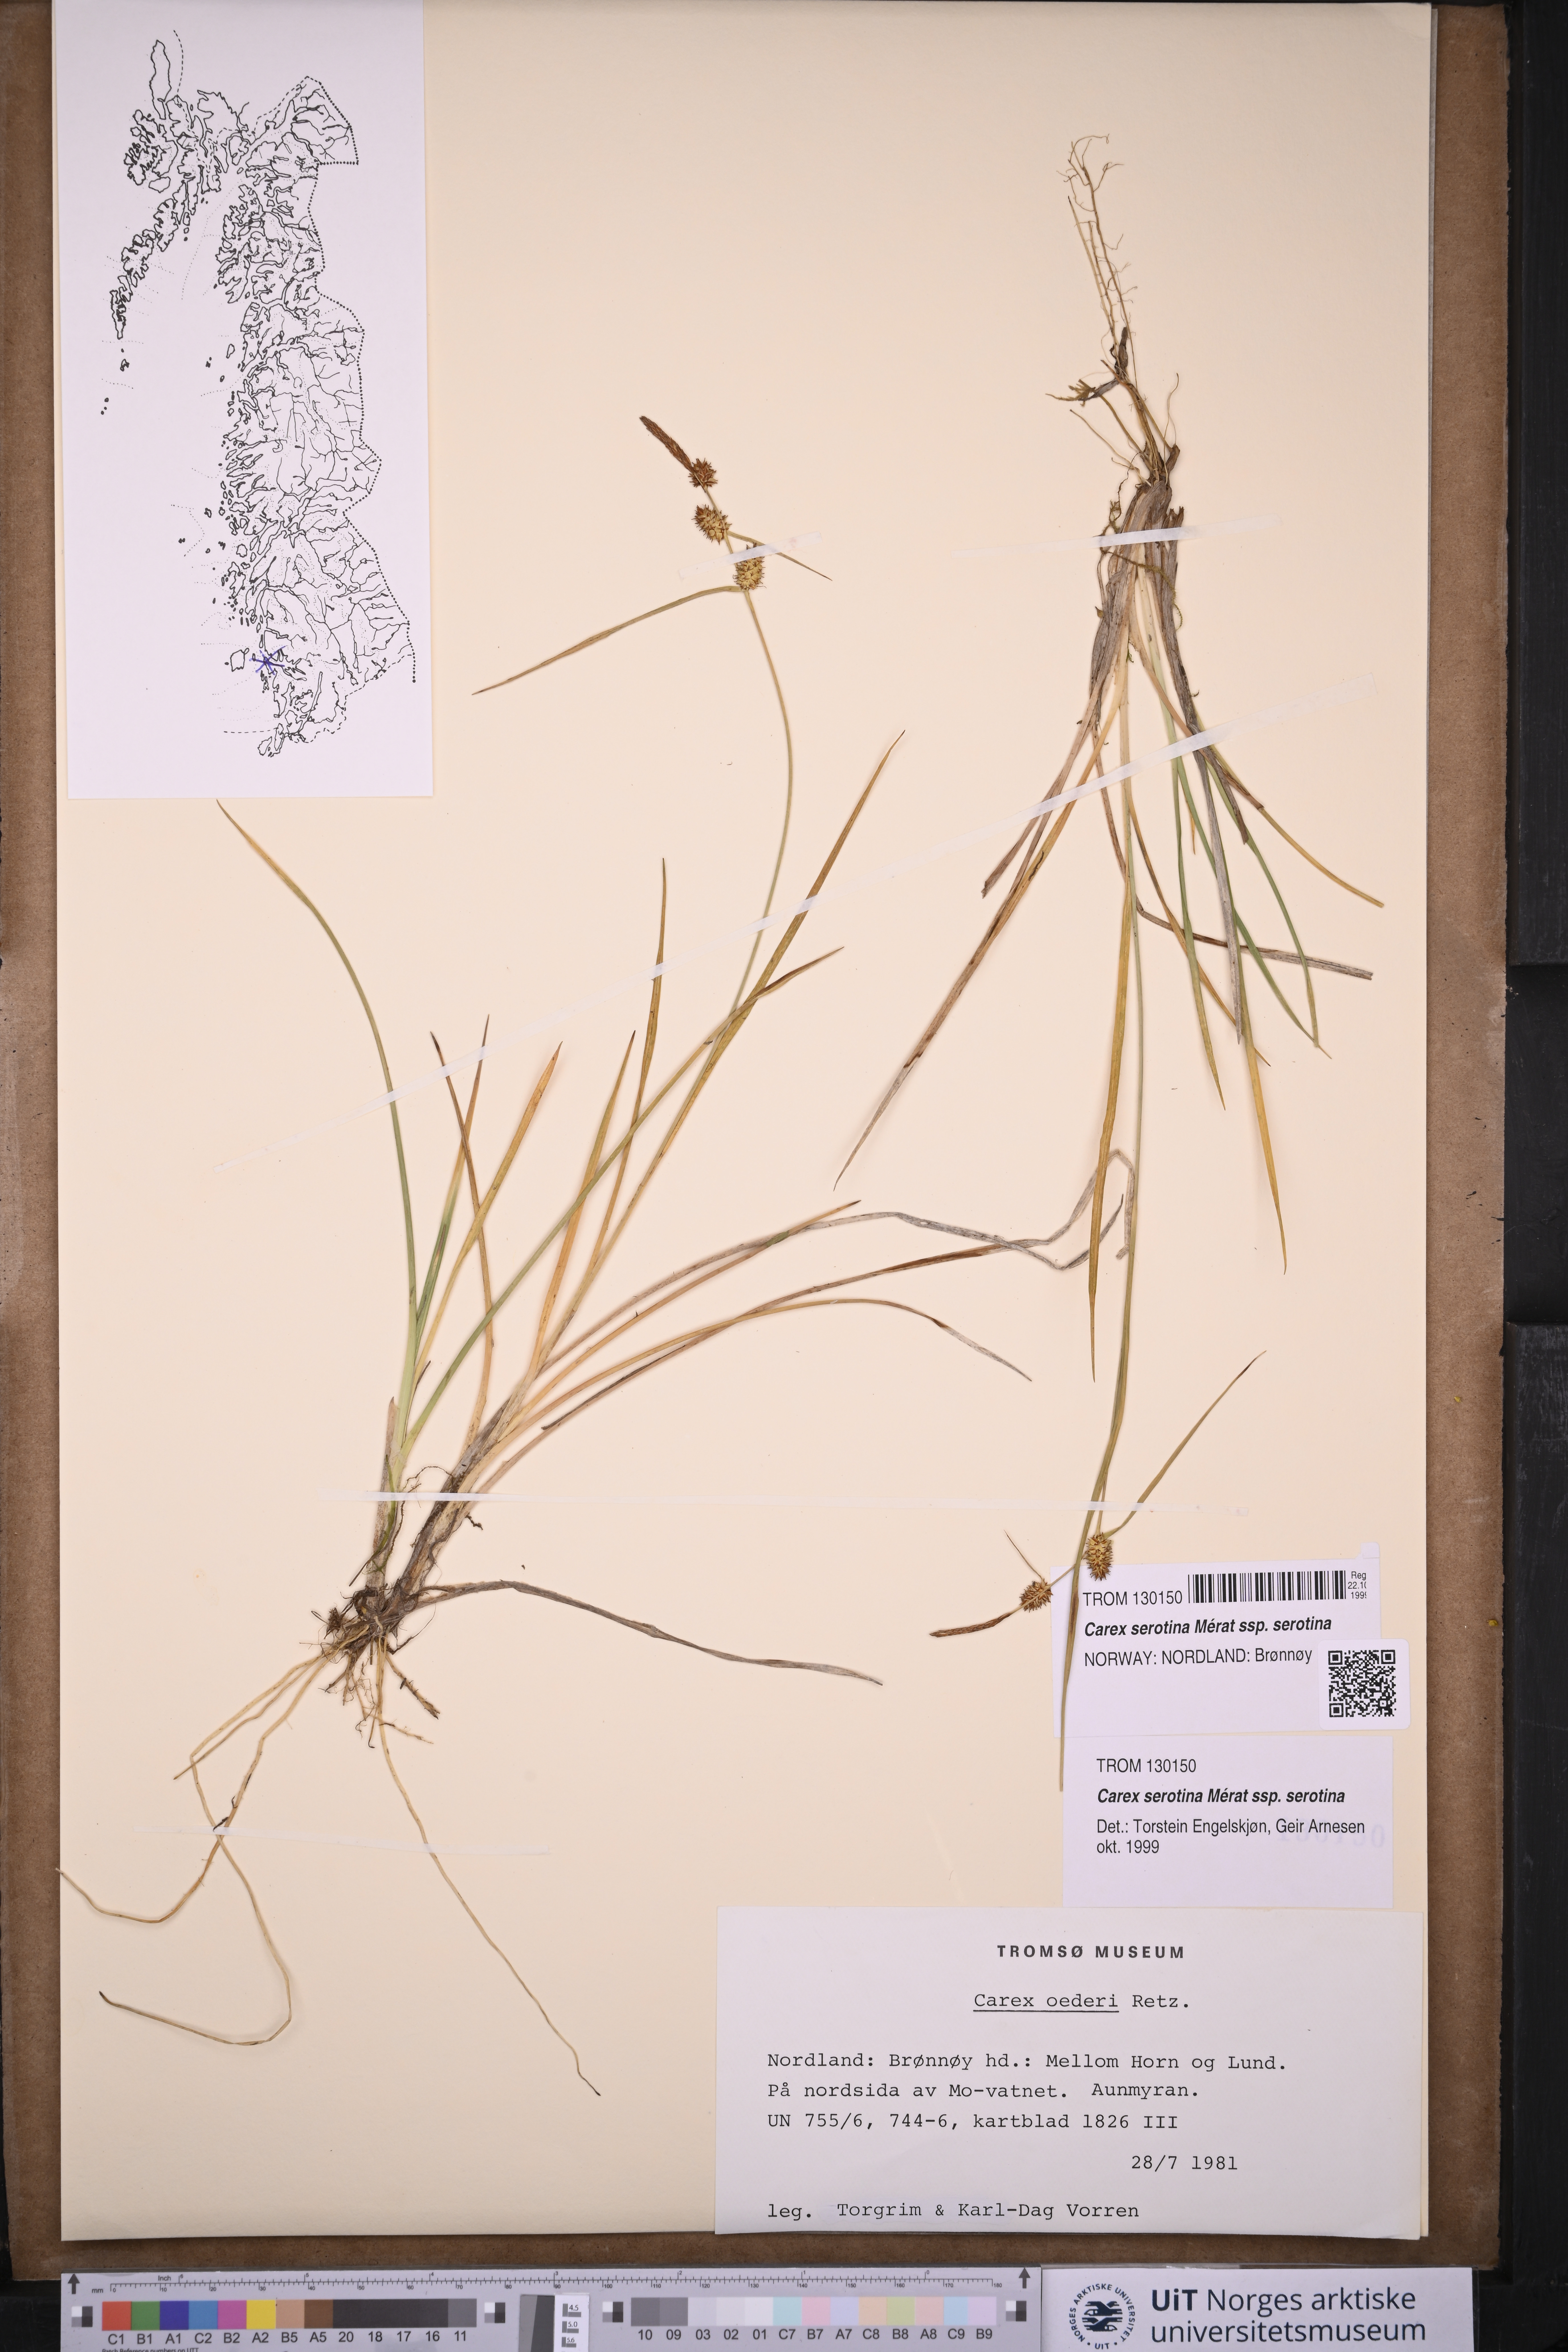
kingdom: Plantae
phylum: Tracheophyta
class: Liliopsida
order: Poales
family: Cyperaceae
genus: Carex
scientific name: Carex oederi
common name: Common & small-fruited yellow-sedge
